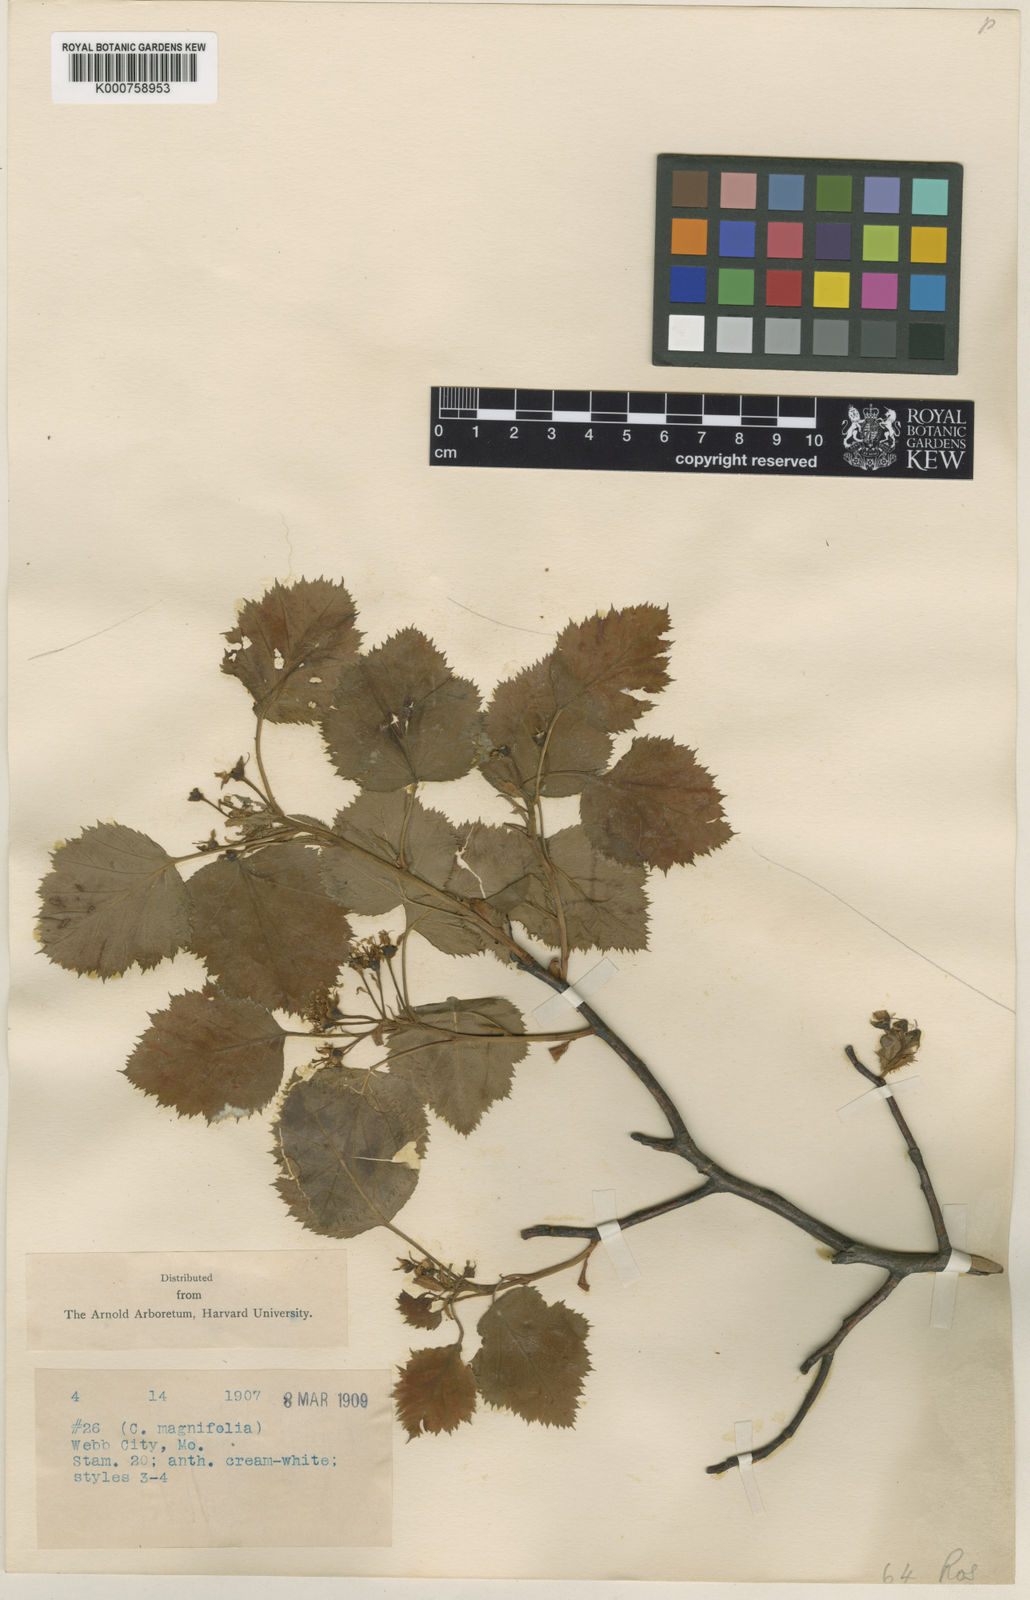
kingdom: Plantae
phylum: Tracheophyta
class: Magnoliopsida
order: Rosales
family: Rosaceae
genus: Crataegus
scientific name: Crataegus pruinosa
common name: Waxy-fruit hawthorn
